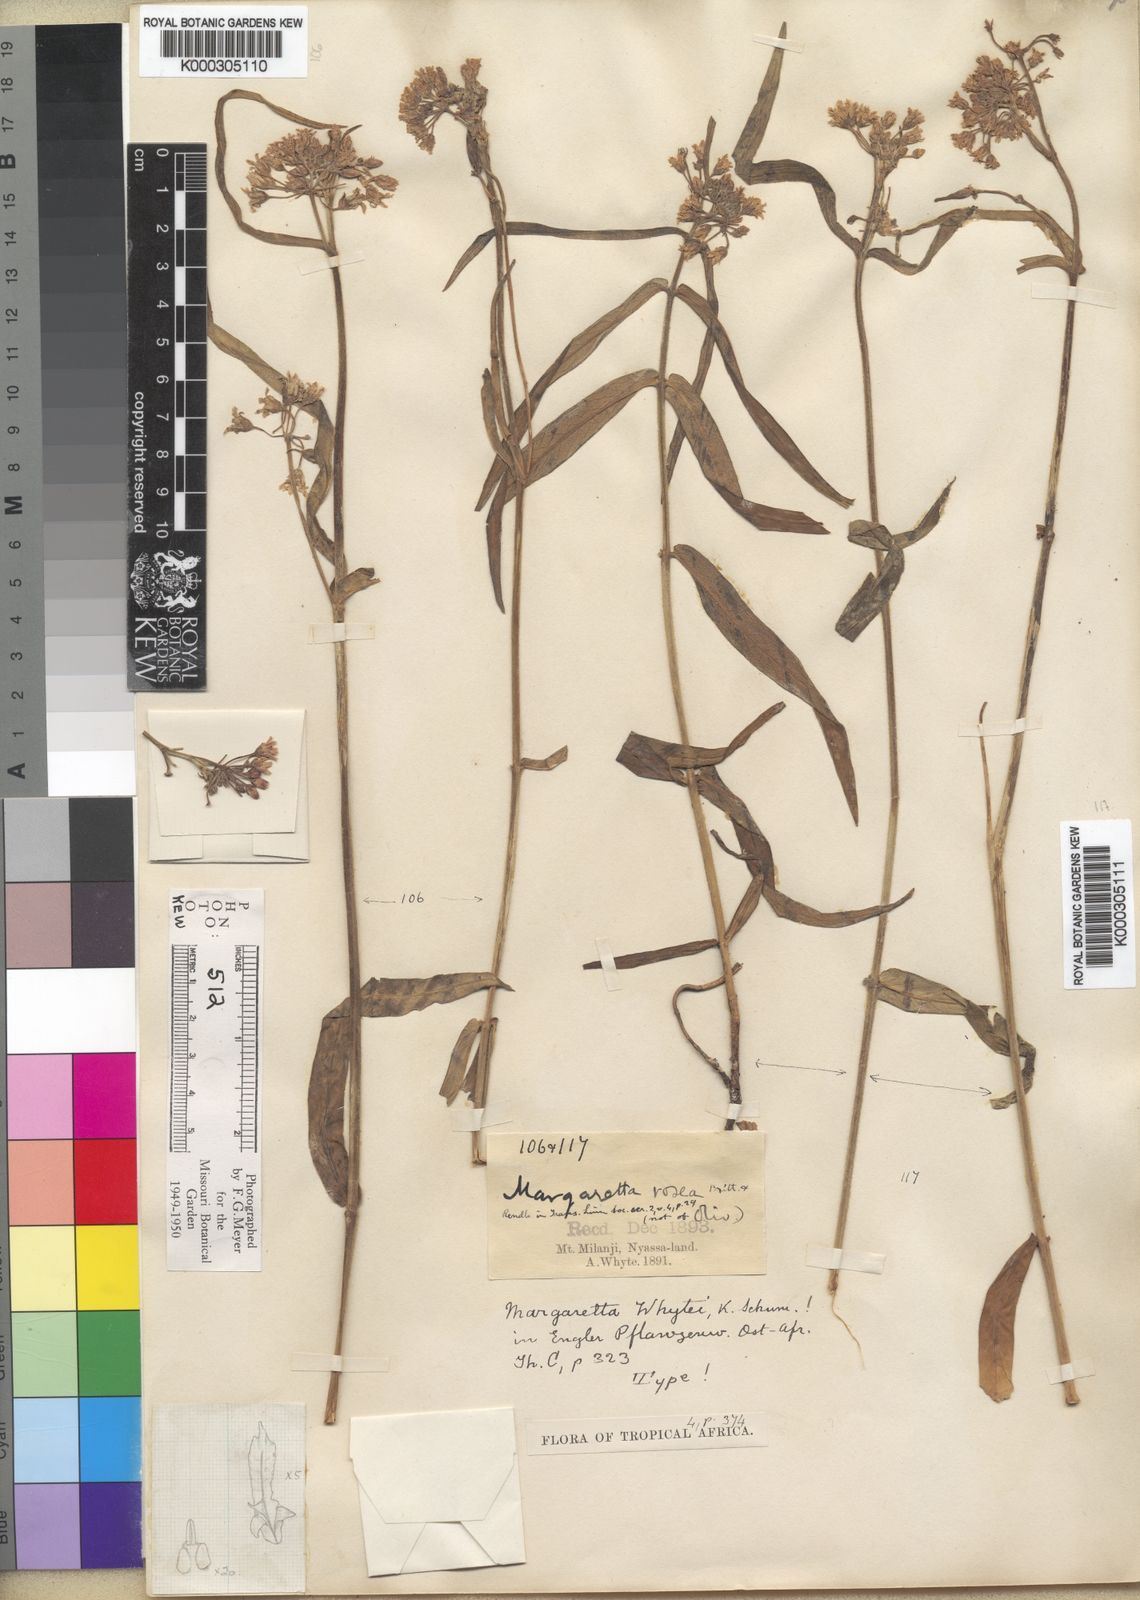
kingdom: Plantae
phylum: Tracheophyta
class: Magnoliopsida
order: Gentianales
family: Apocynaceae
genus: Margaretta
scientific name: Margaretta rosea
